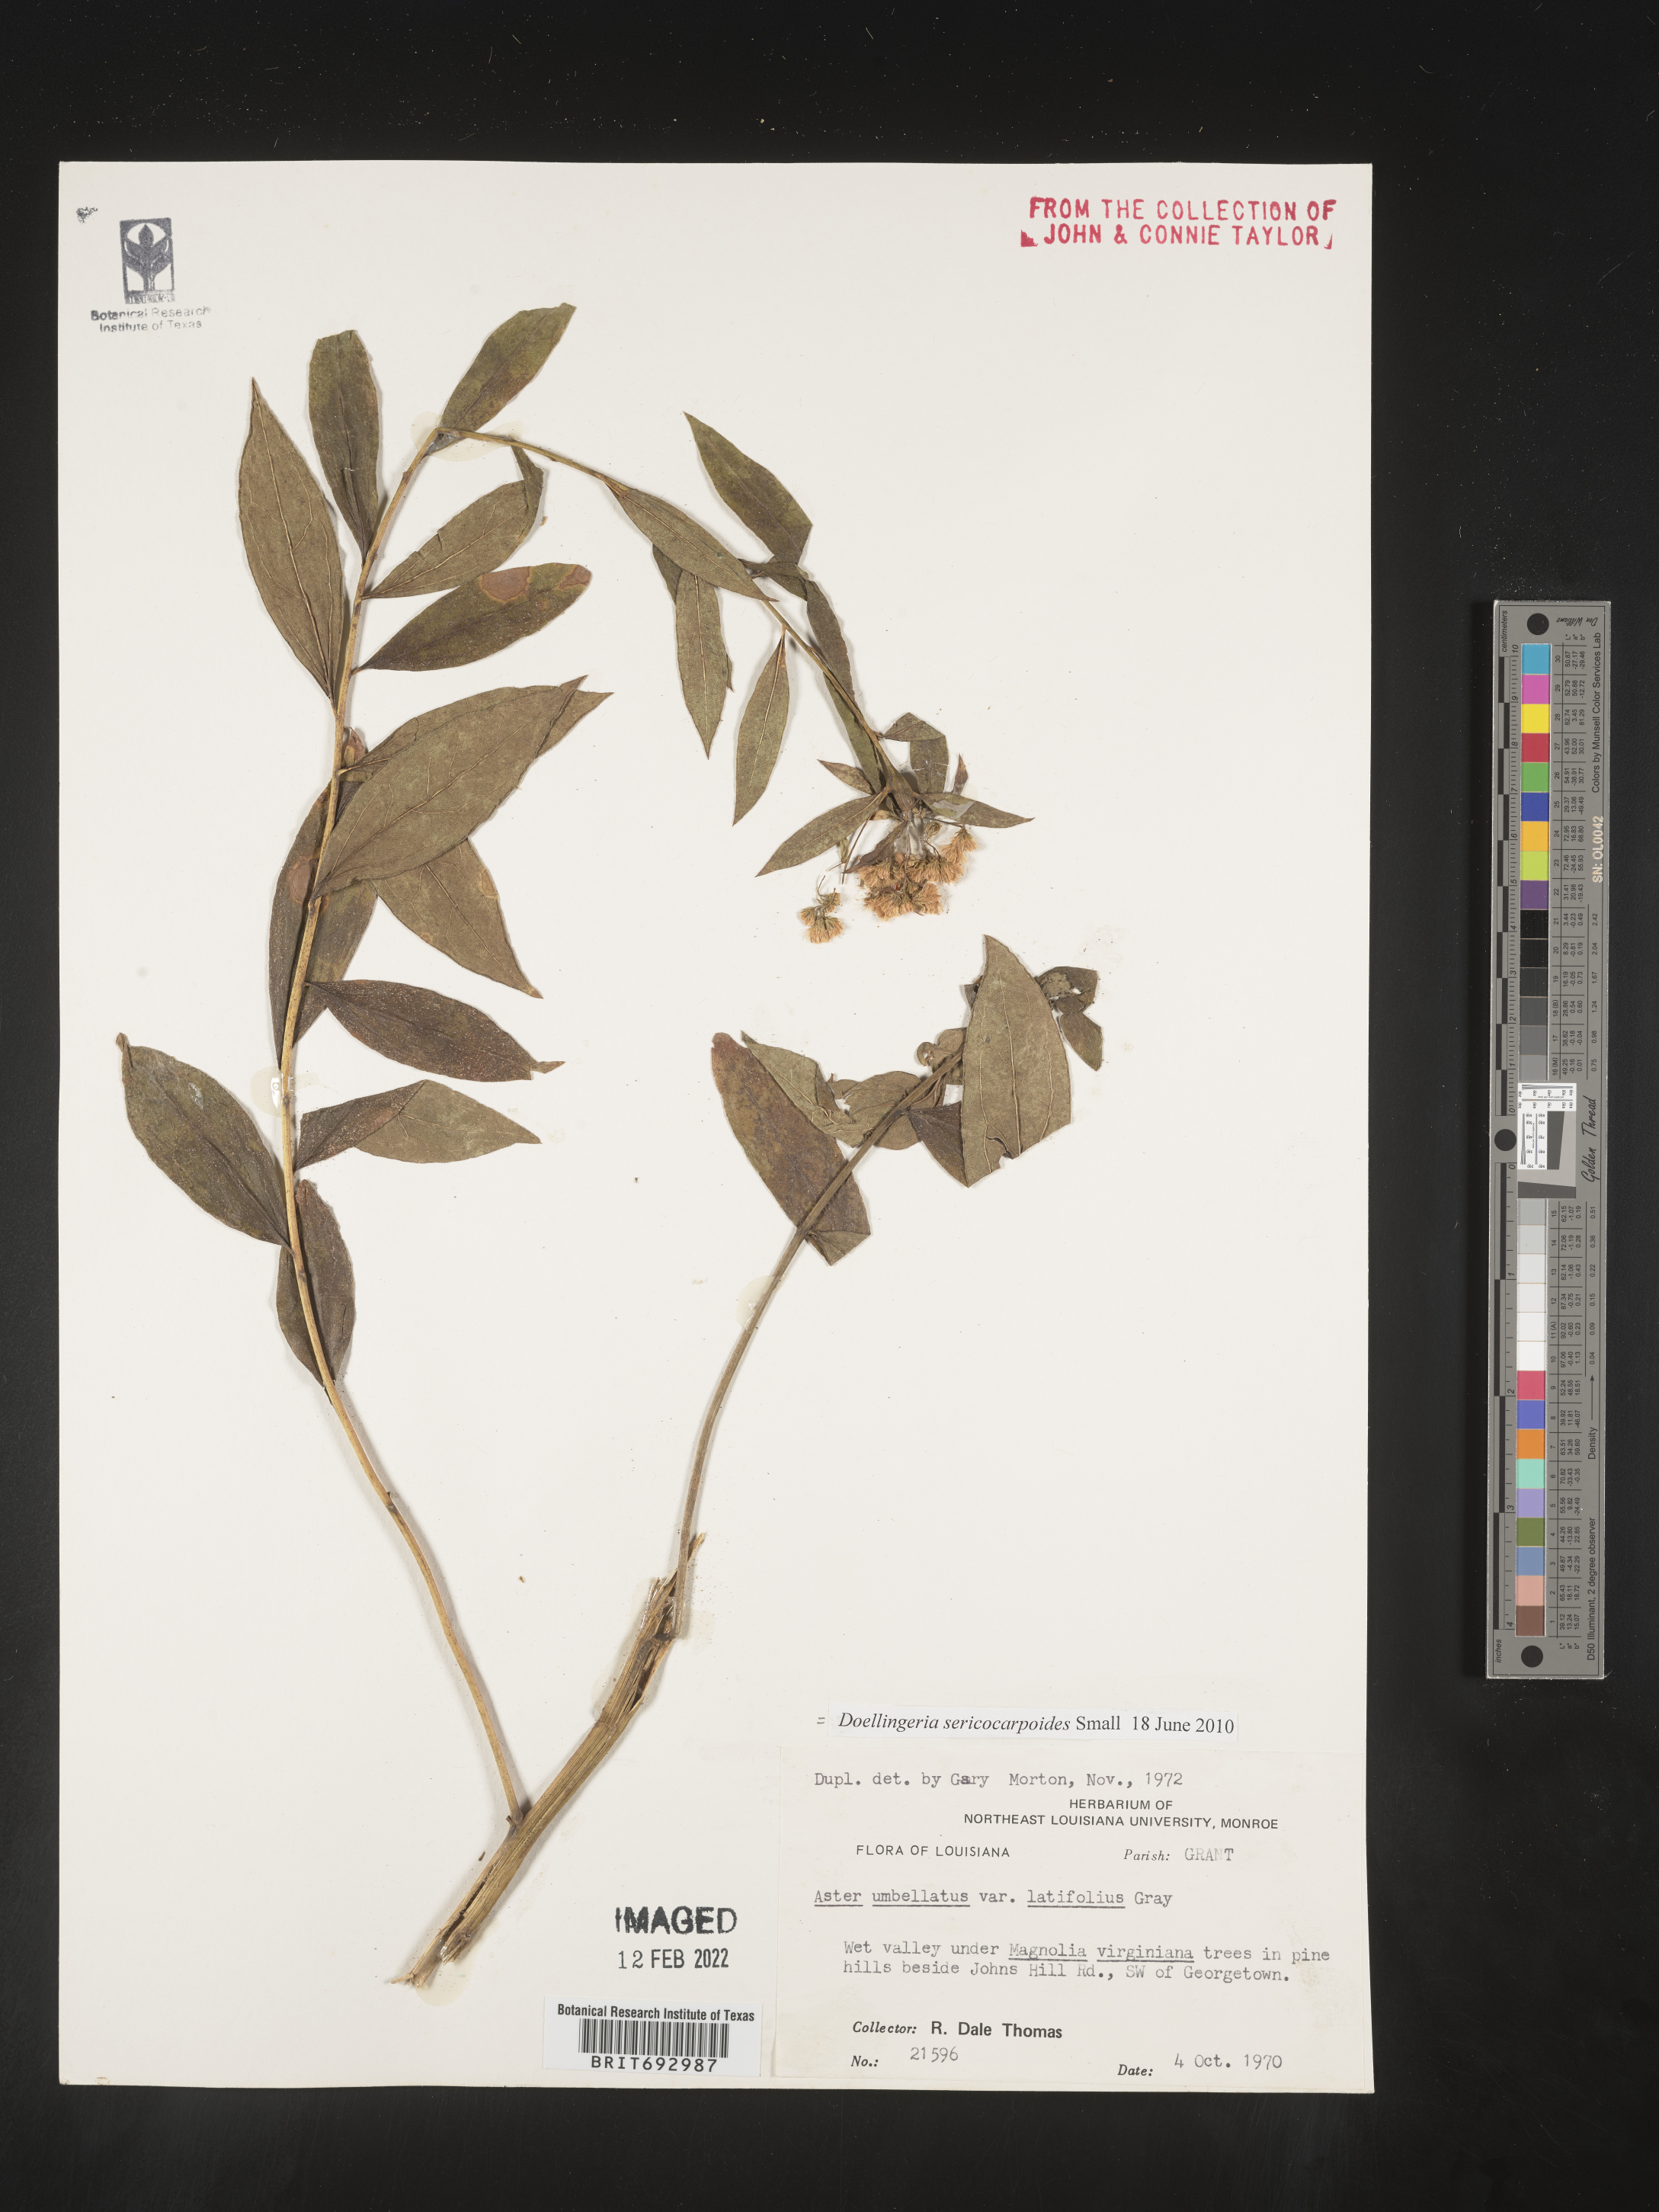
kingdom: Plantae
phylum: Tracheophyta
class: Magnoliopsida
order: Asterales
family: Asteraceae
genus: Doellingeria
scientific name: Doellingeria sericocarpoides
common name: Southern tall flat-top aster
